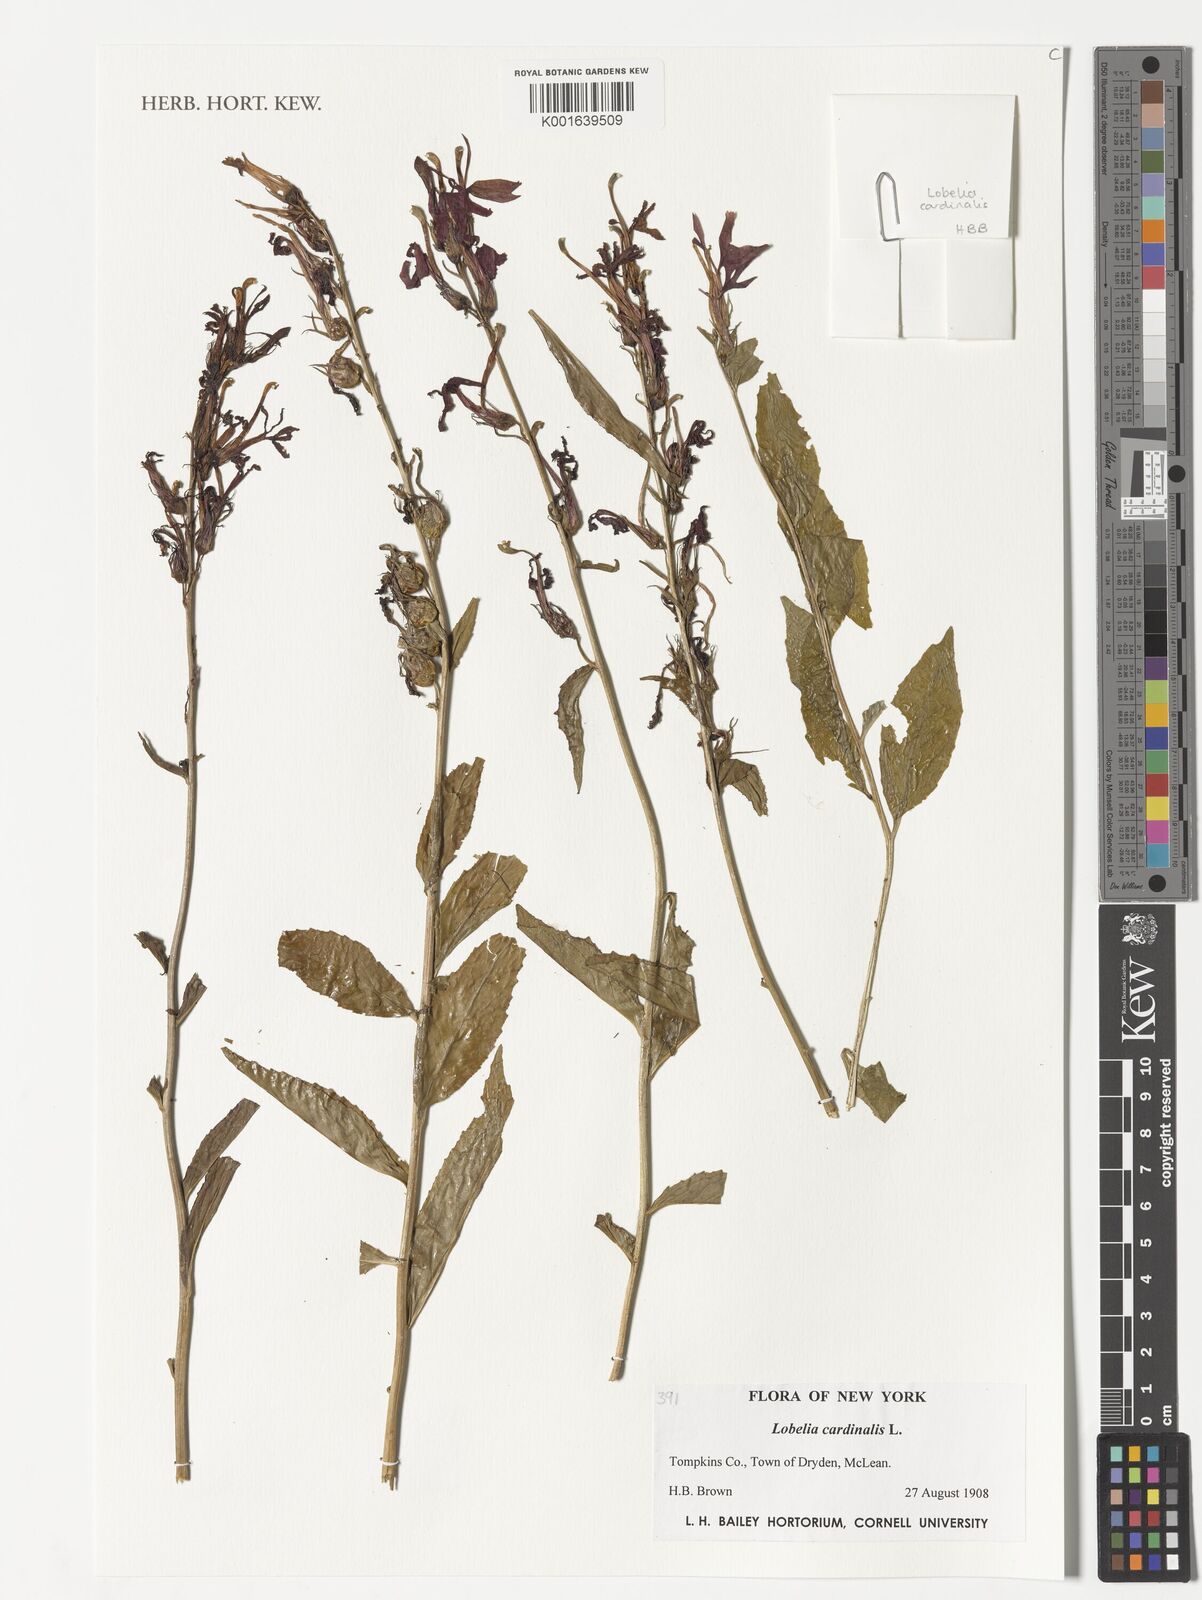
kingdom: Plantae
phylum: Tracheophyta
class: Magnoliopsida
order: Asterales
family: Campanulaceae
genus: Lobelia
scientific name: Lobelia cardinalis
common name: Cardinal flower
